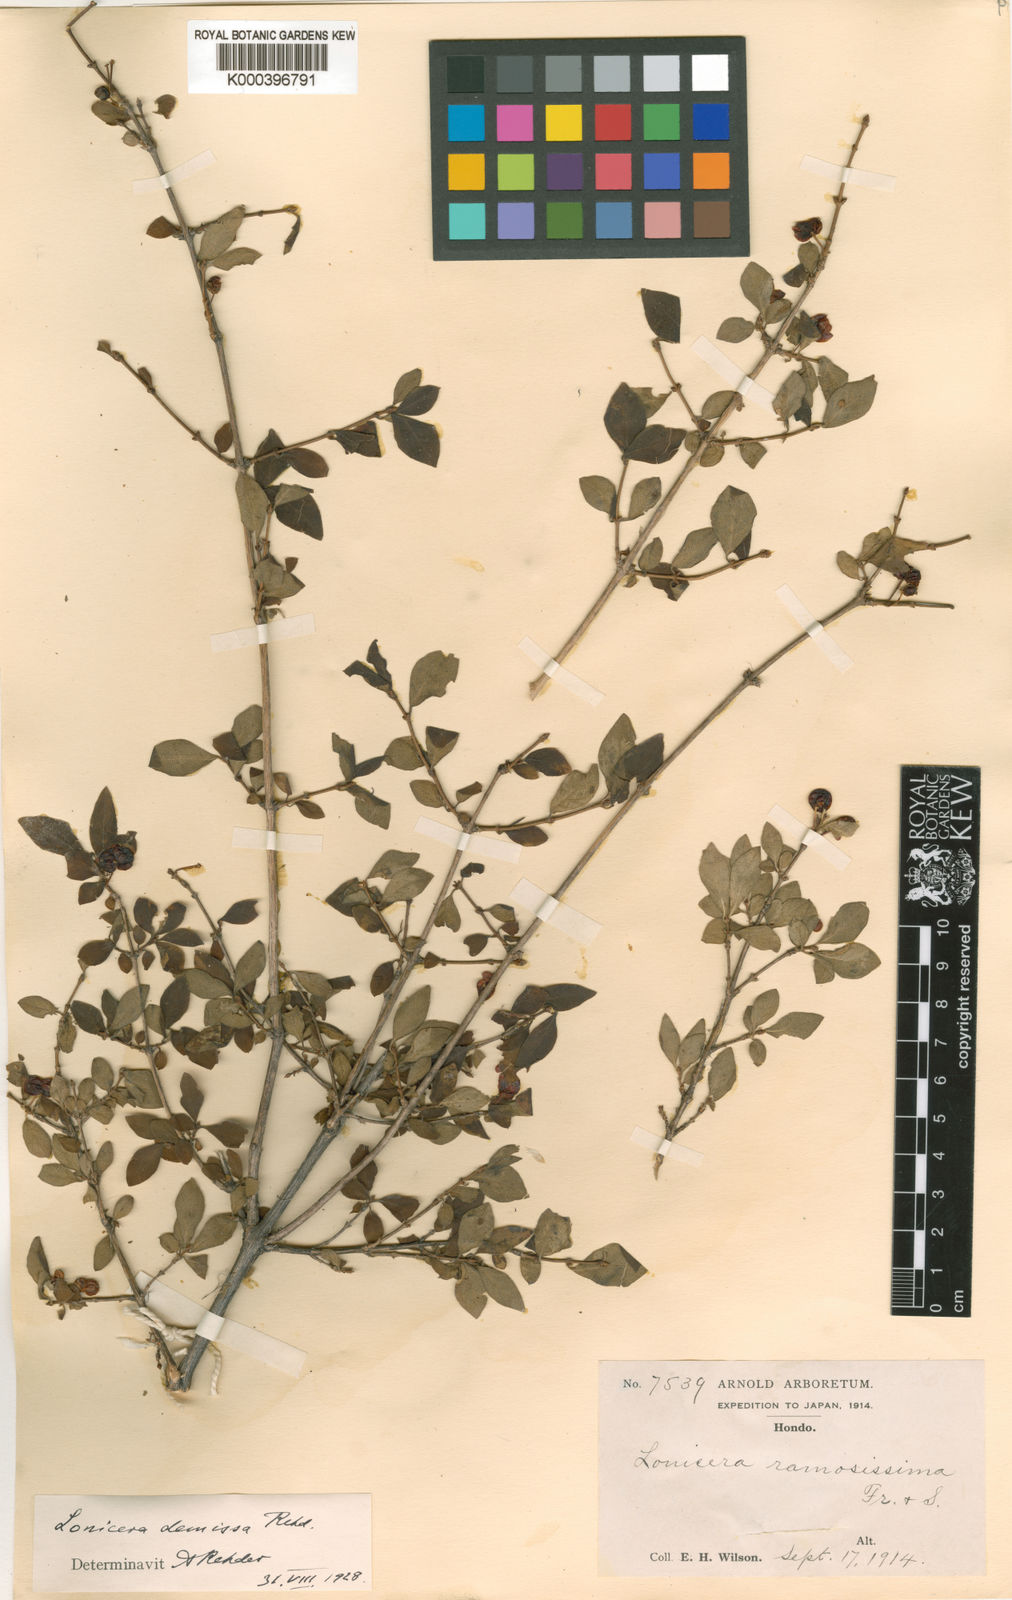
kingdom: Plantae
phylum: Tracheophyta
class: Magnoliopsida
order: Dipsacales
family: Caprifoliaceae
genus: Lonicera
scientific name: Lonicera demissa
